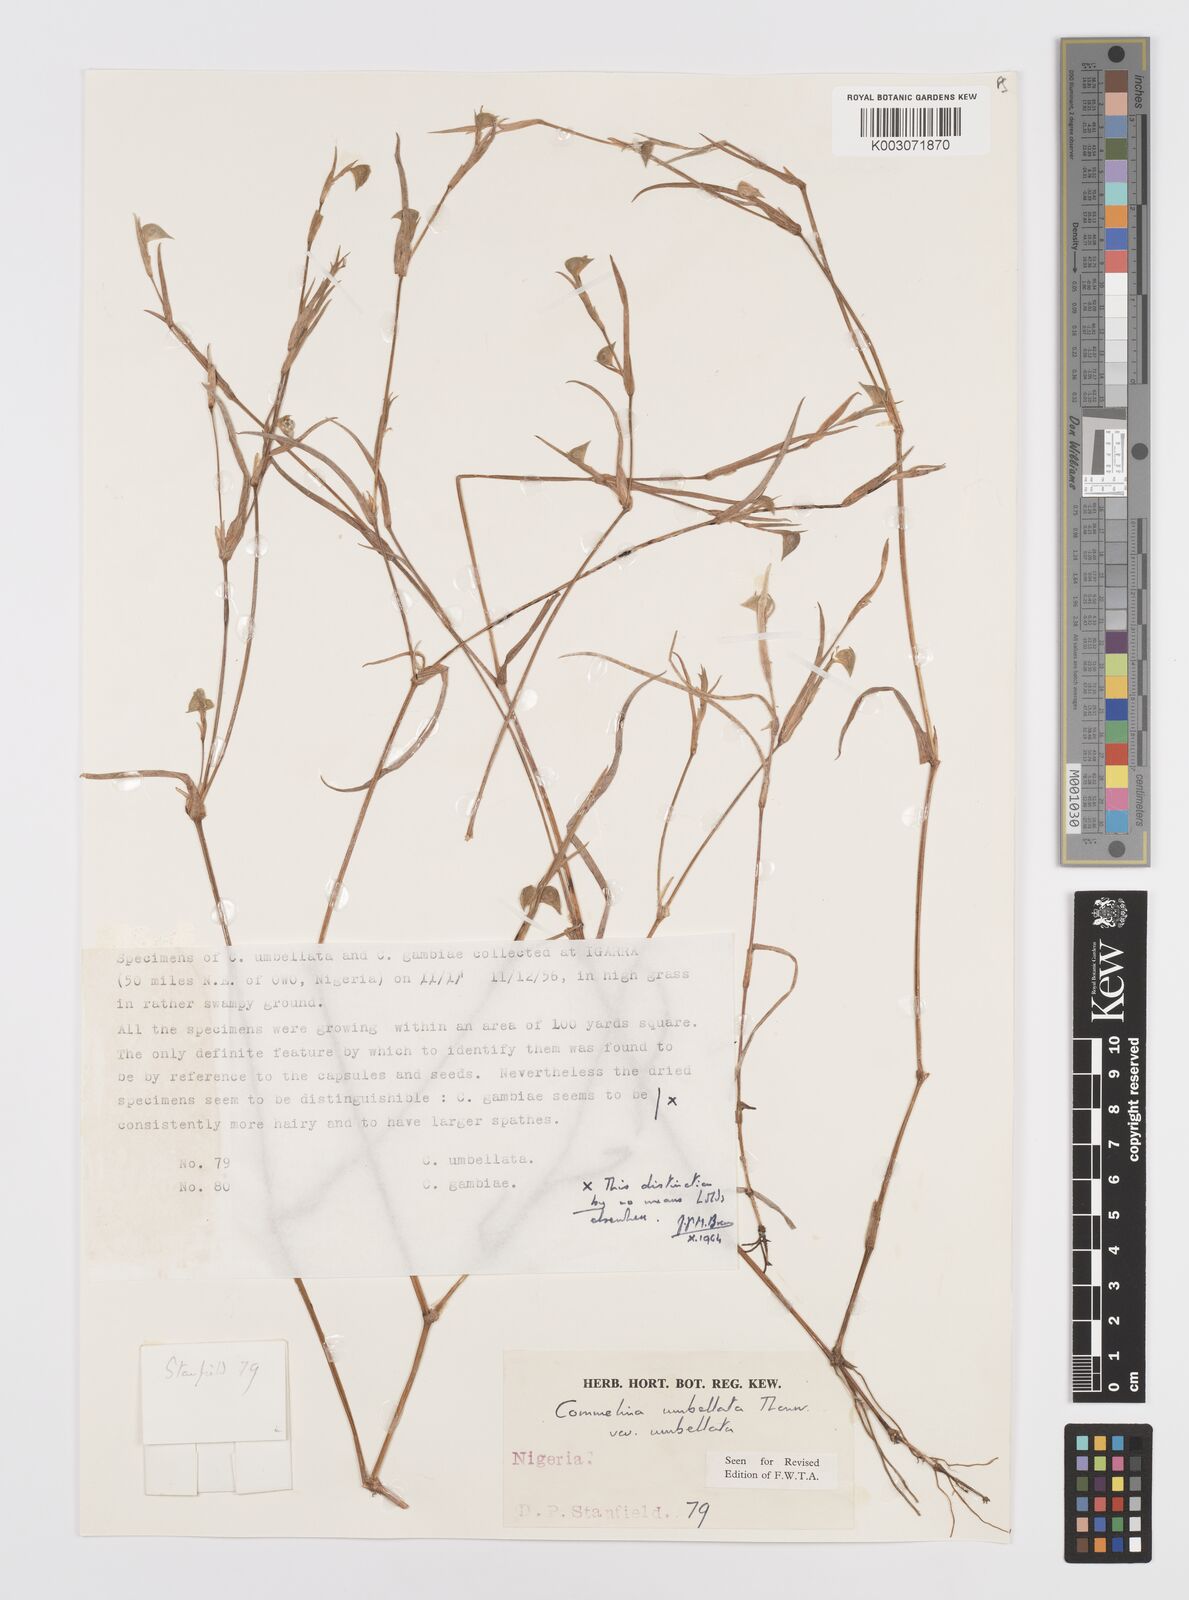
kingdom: Plantae
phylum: Tracheophyta
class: Liliopsida
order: Commelinales
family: Commelinaceae
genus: Commelina
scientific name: Commelina
